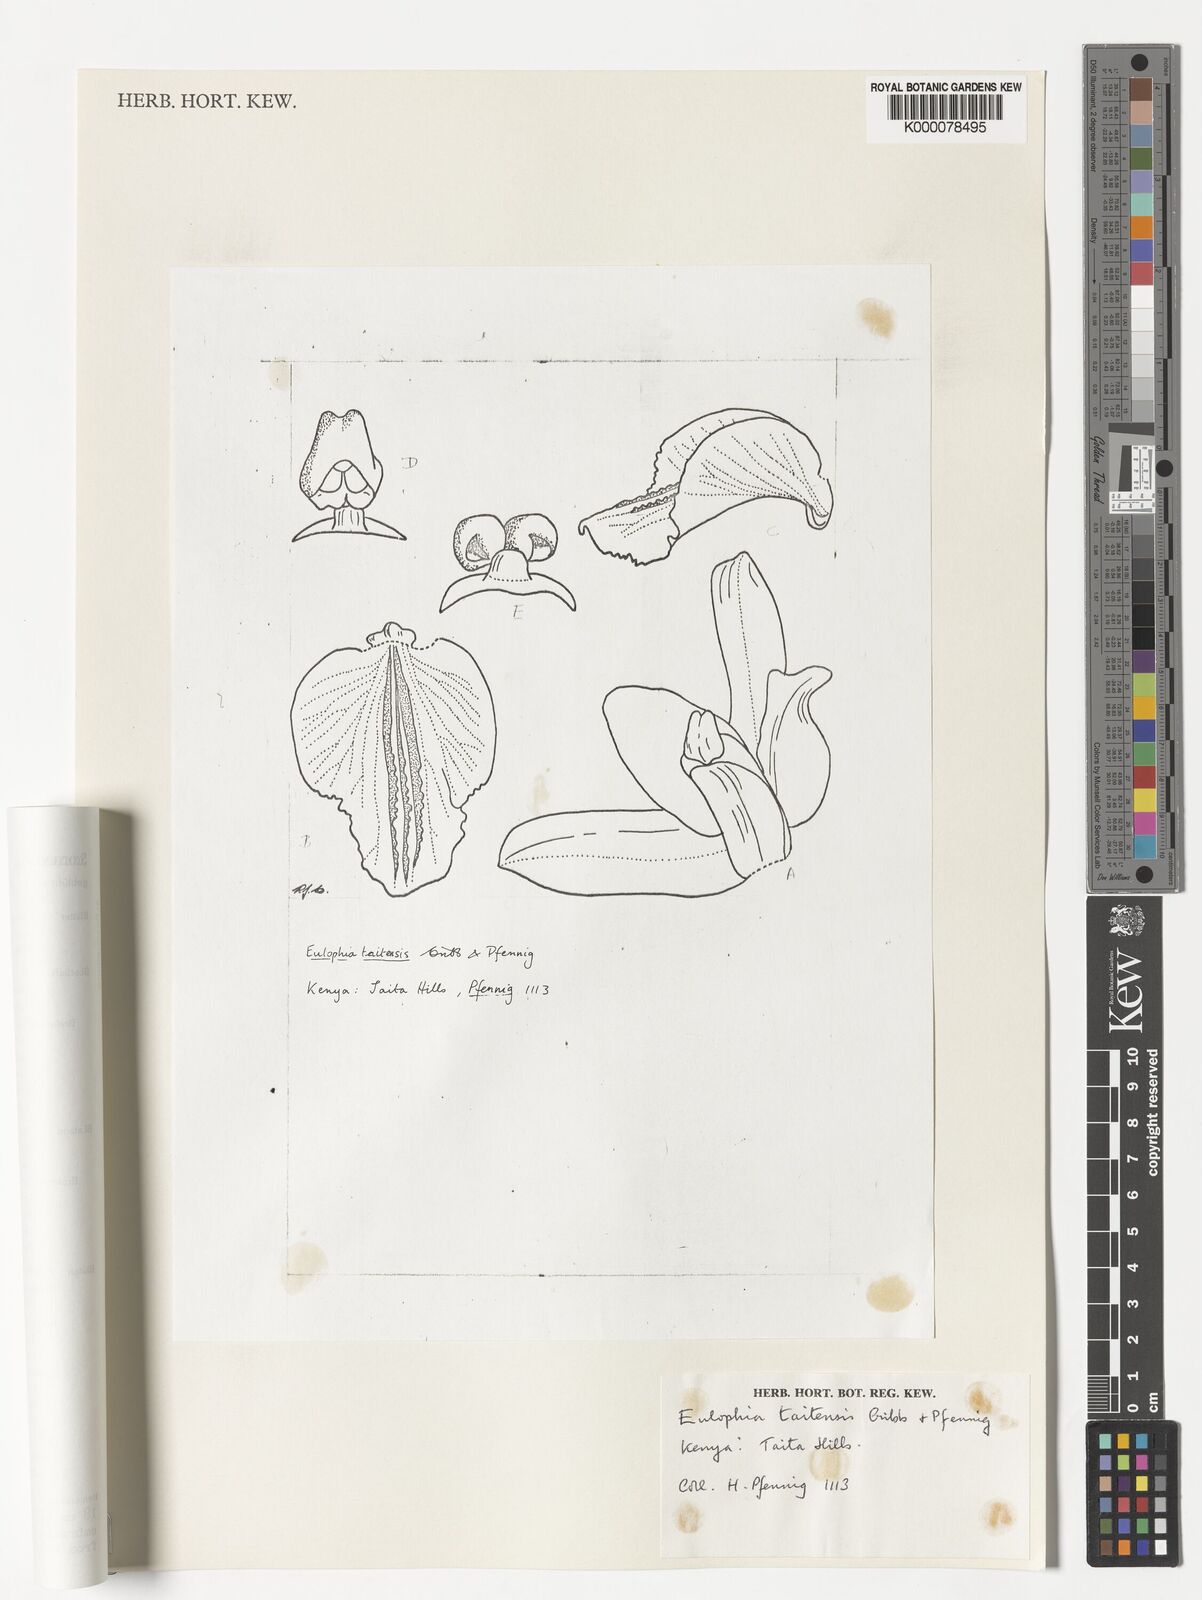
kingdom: Plantae
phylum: Tracheophyta
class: Liliopsida
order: Asparagales
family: Orchidaceae
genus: Eulophia
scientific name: Eulophia taitensis
